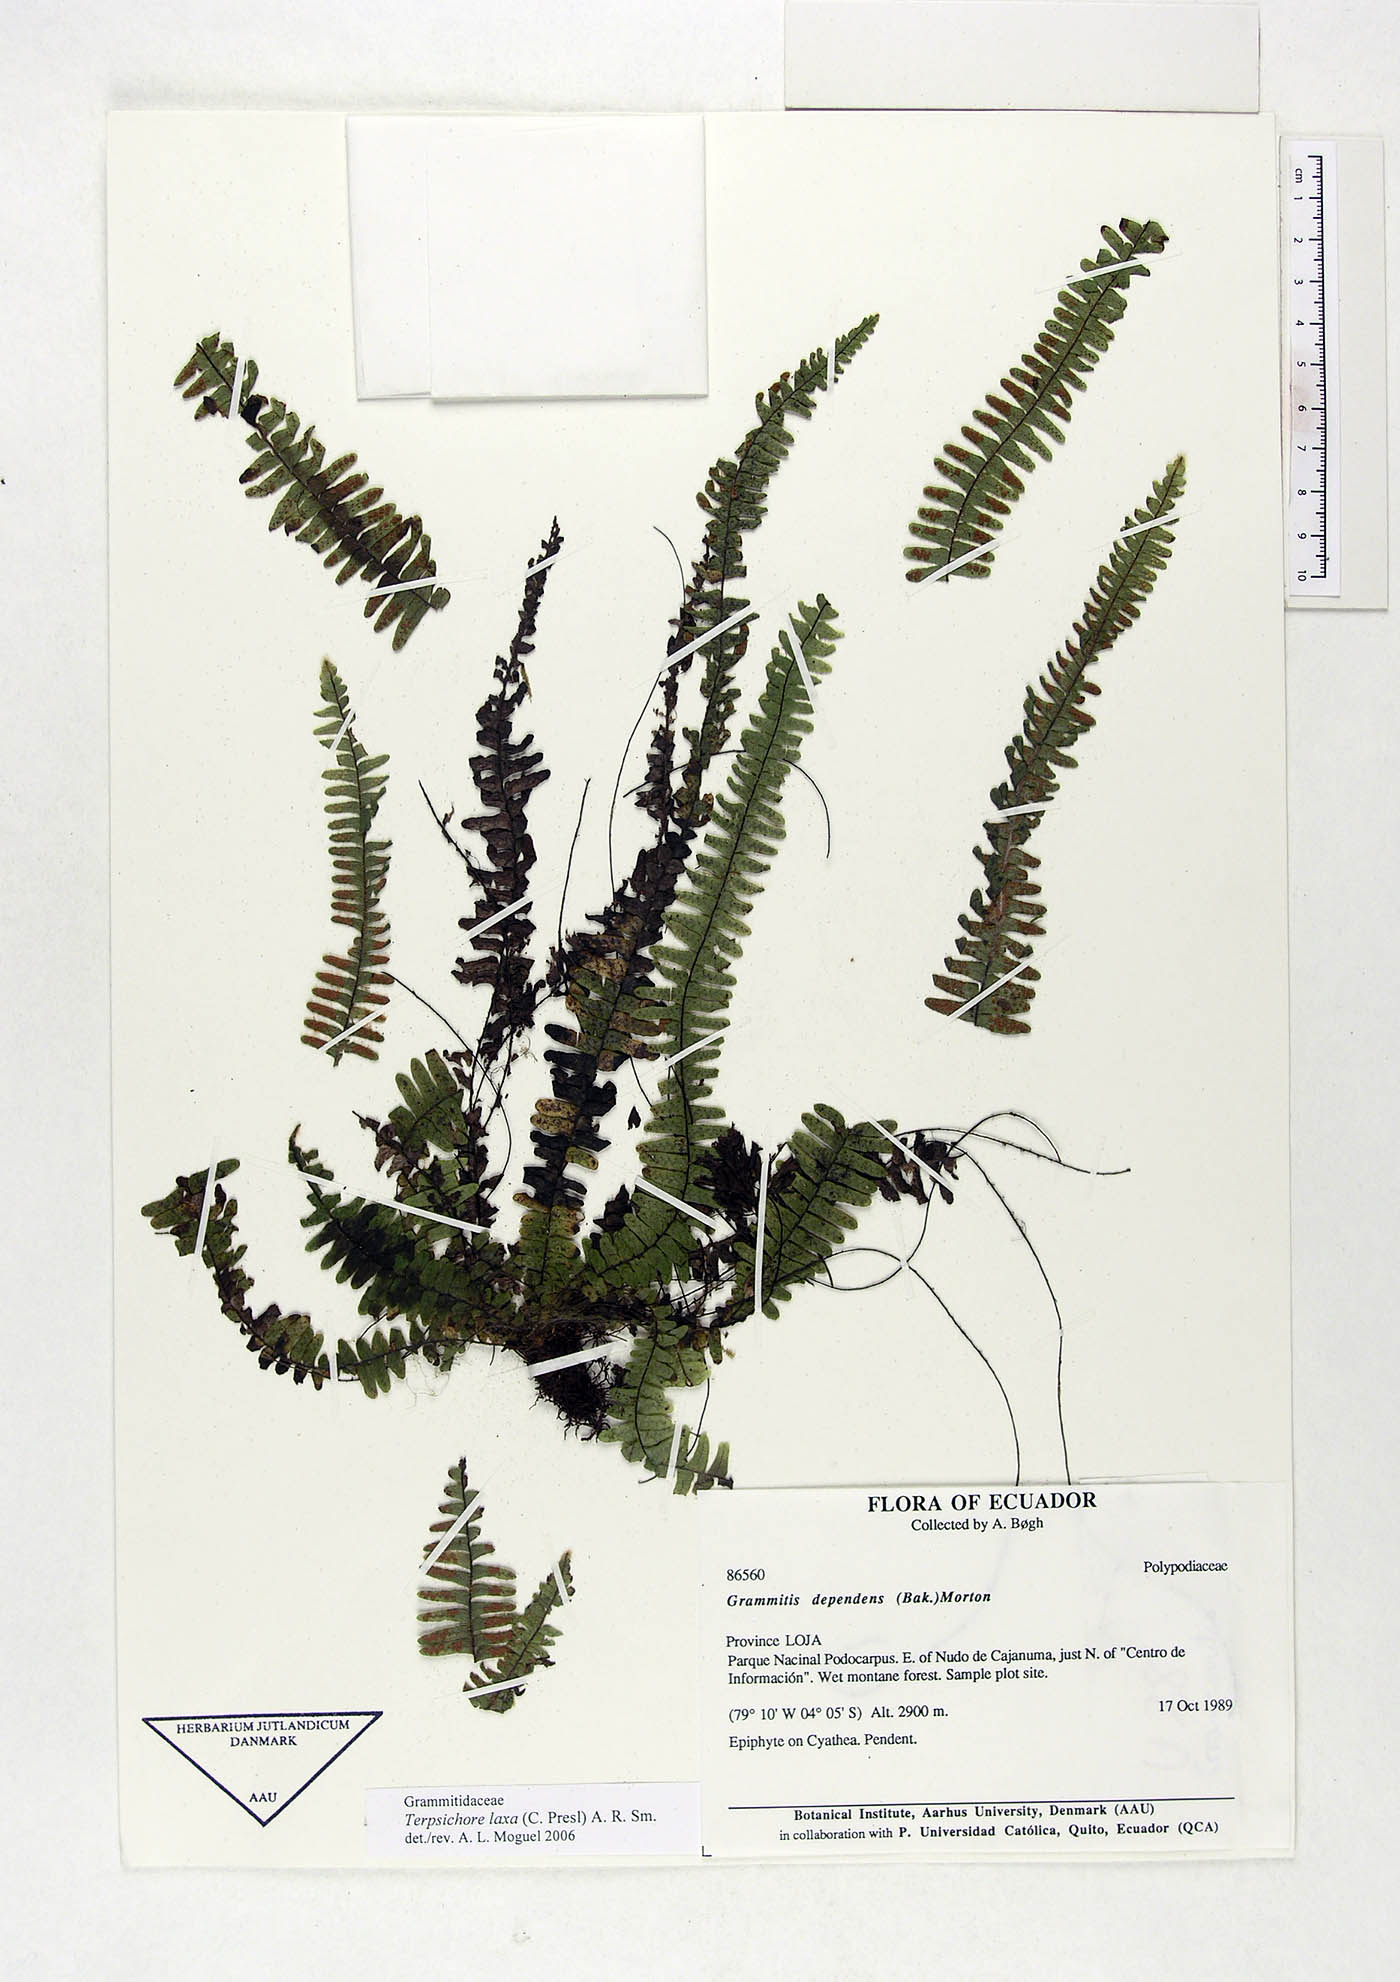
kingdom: Plantae
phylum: Tracheophyta
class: Polypodiopsida
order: Polypodiales
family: Polypodiaceae
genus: Alansmia
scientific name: Alansmia laxa
